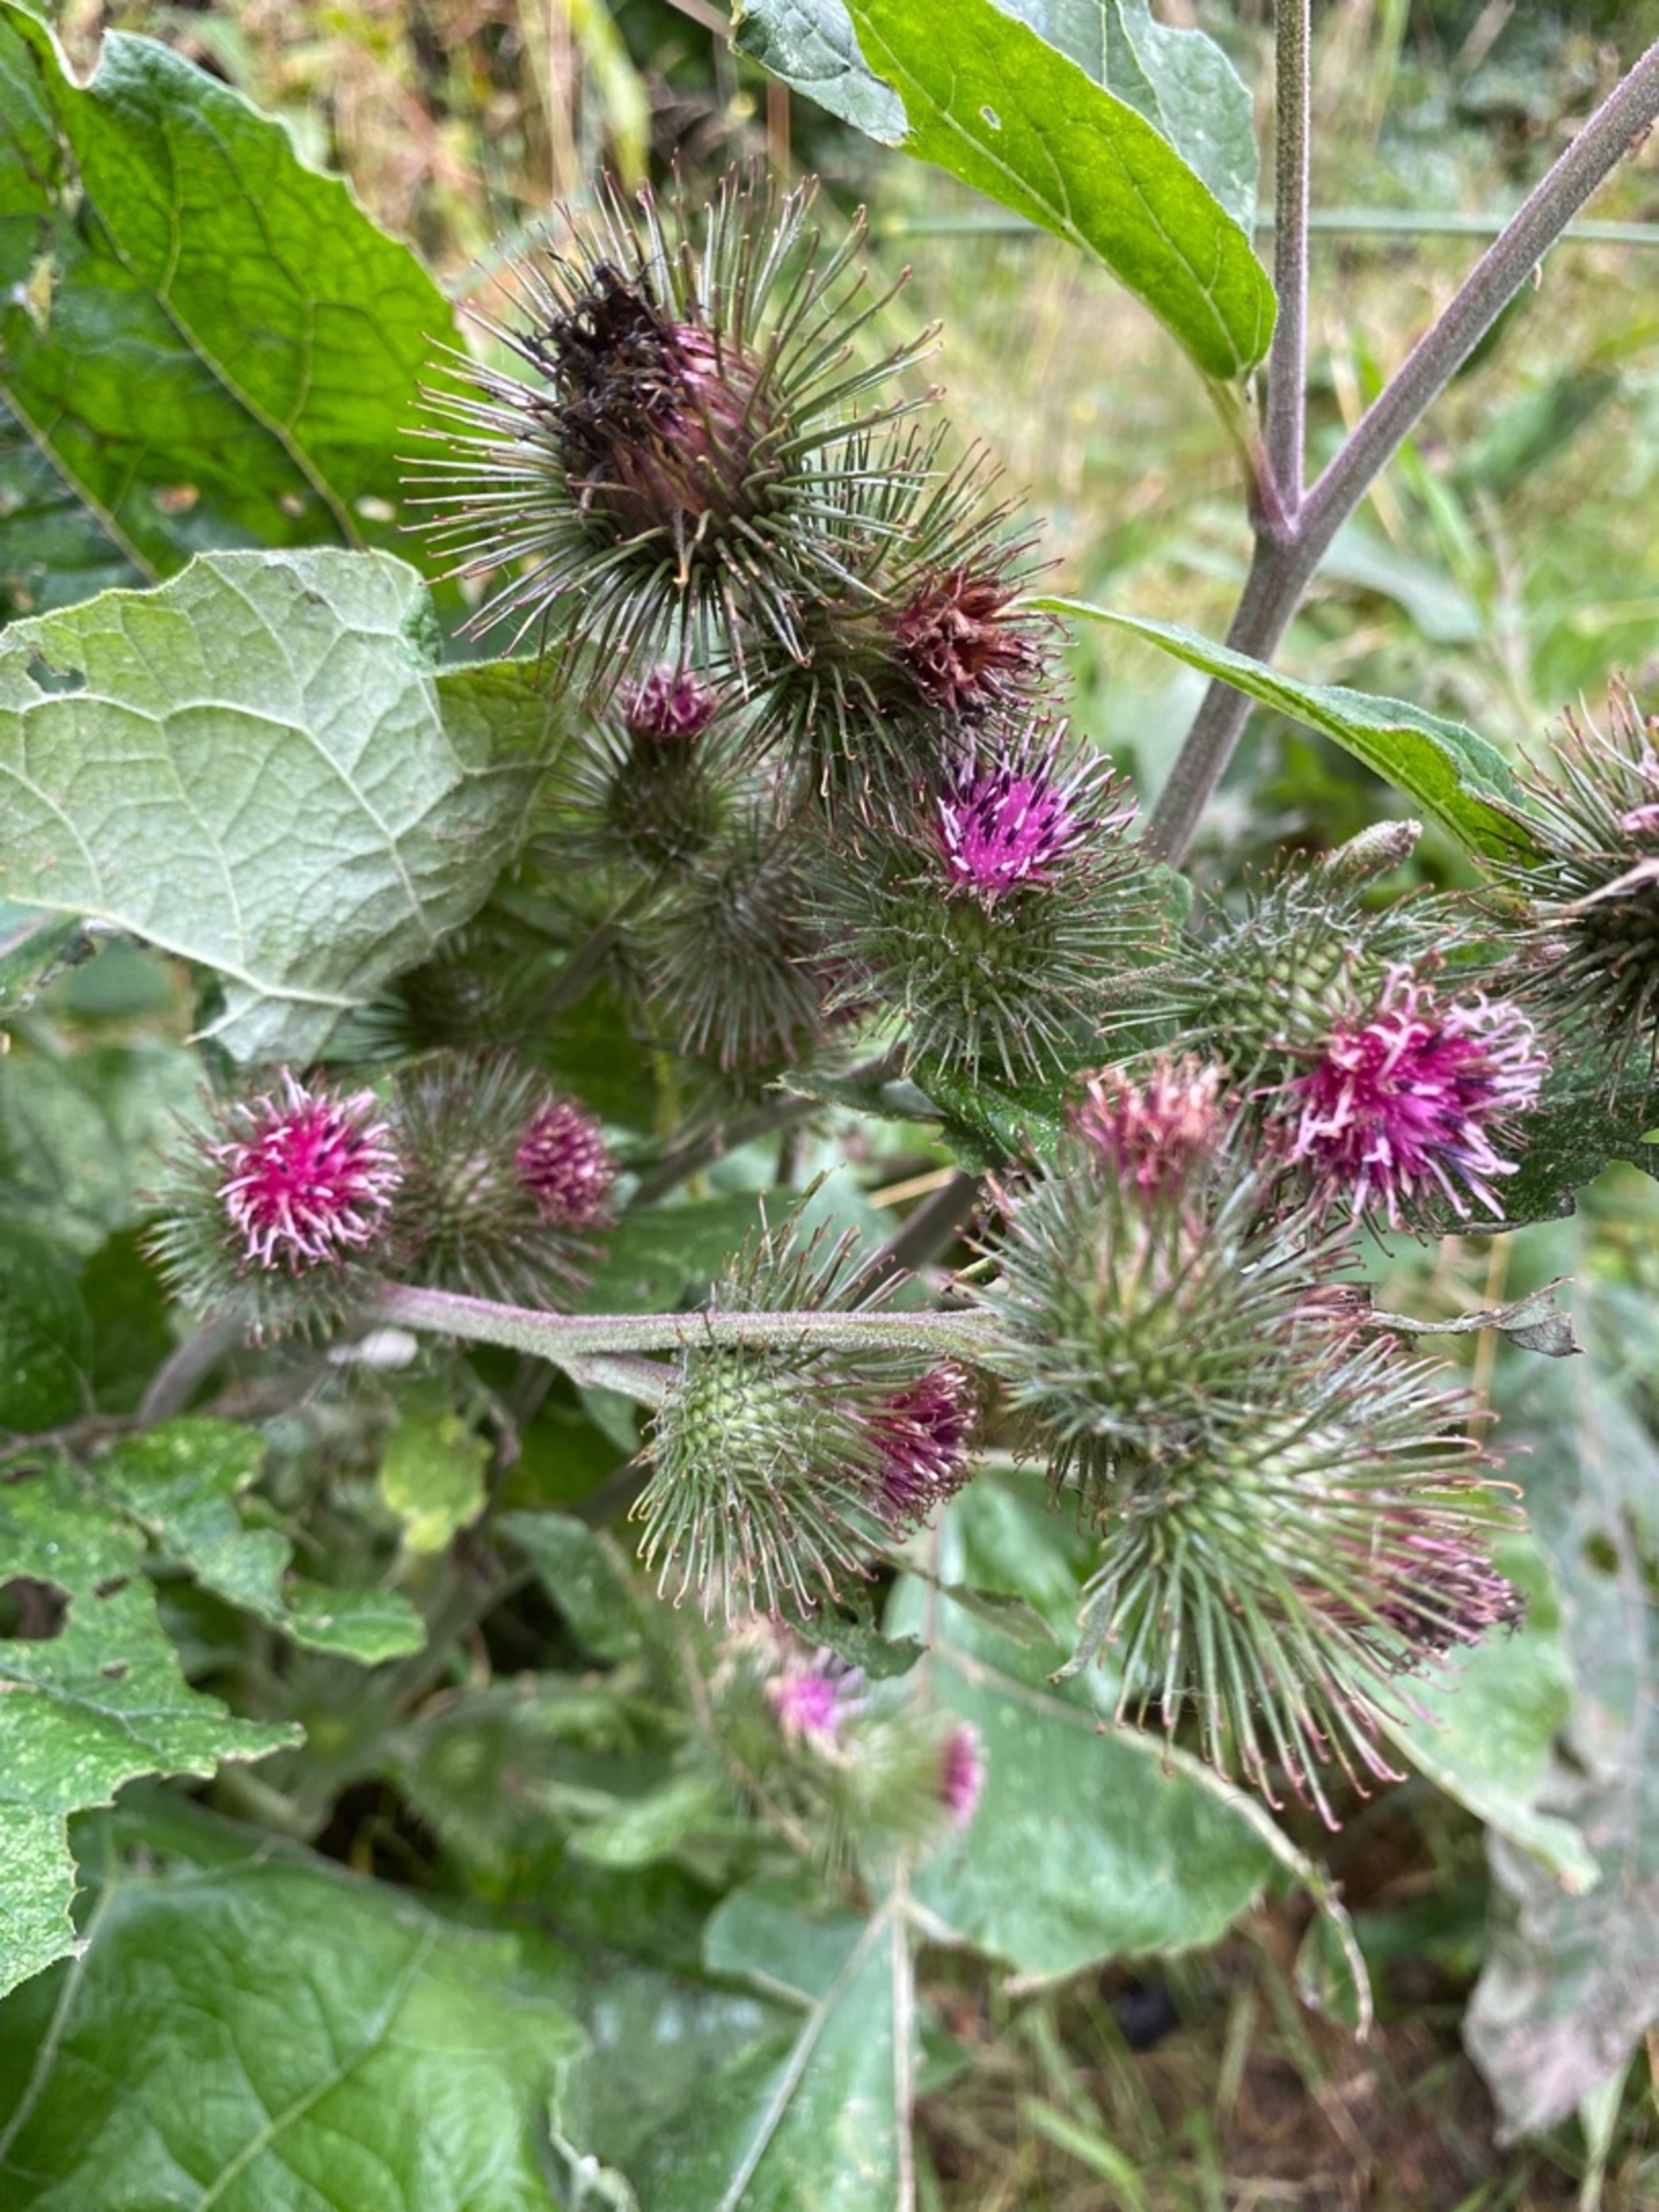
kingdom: Plantae
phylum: Tracheophyta
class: Magnoliopsida
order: Asterales
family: Asteraceae
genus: Arctium
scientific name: Arctium nemorosum
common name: Skov-burre
